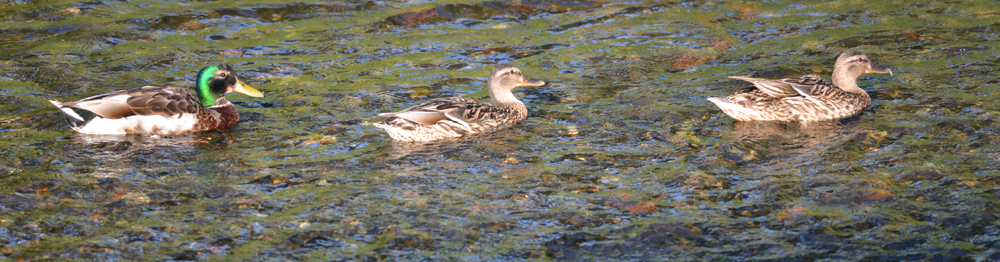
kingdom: Animalia
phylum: Chordata
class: Aves
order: Anseriformes
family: Anatidae
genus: Anas
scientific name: Anas platyrhynchos
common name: Mallard
